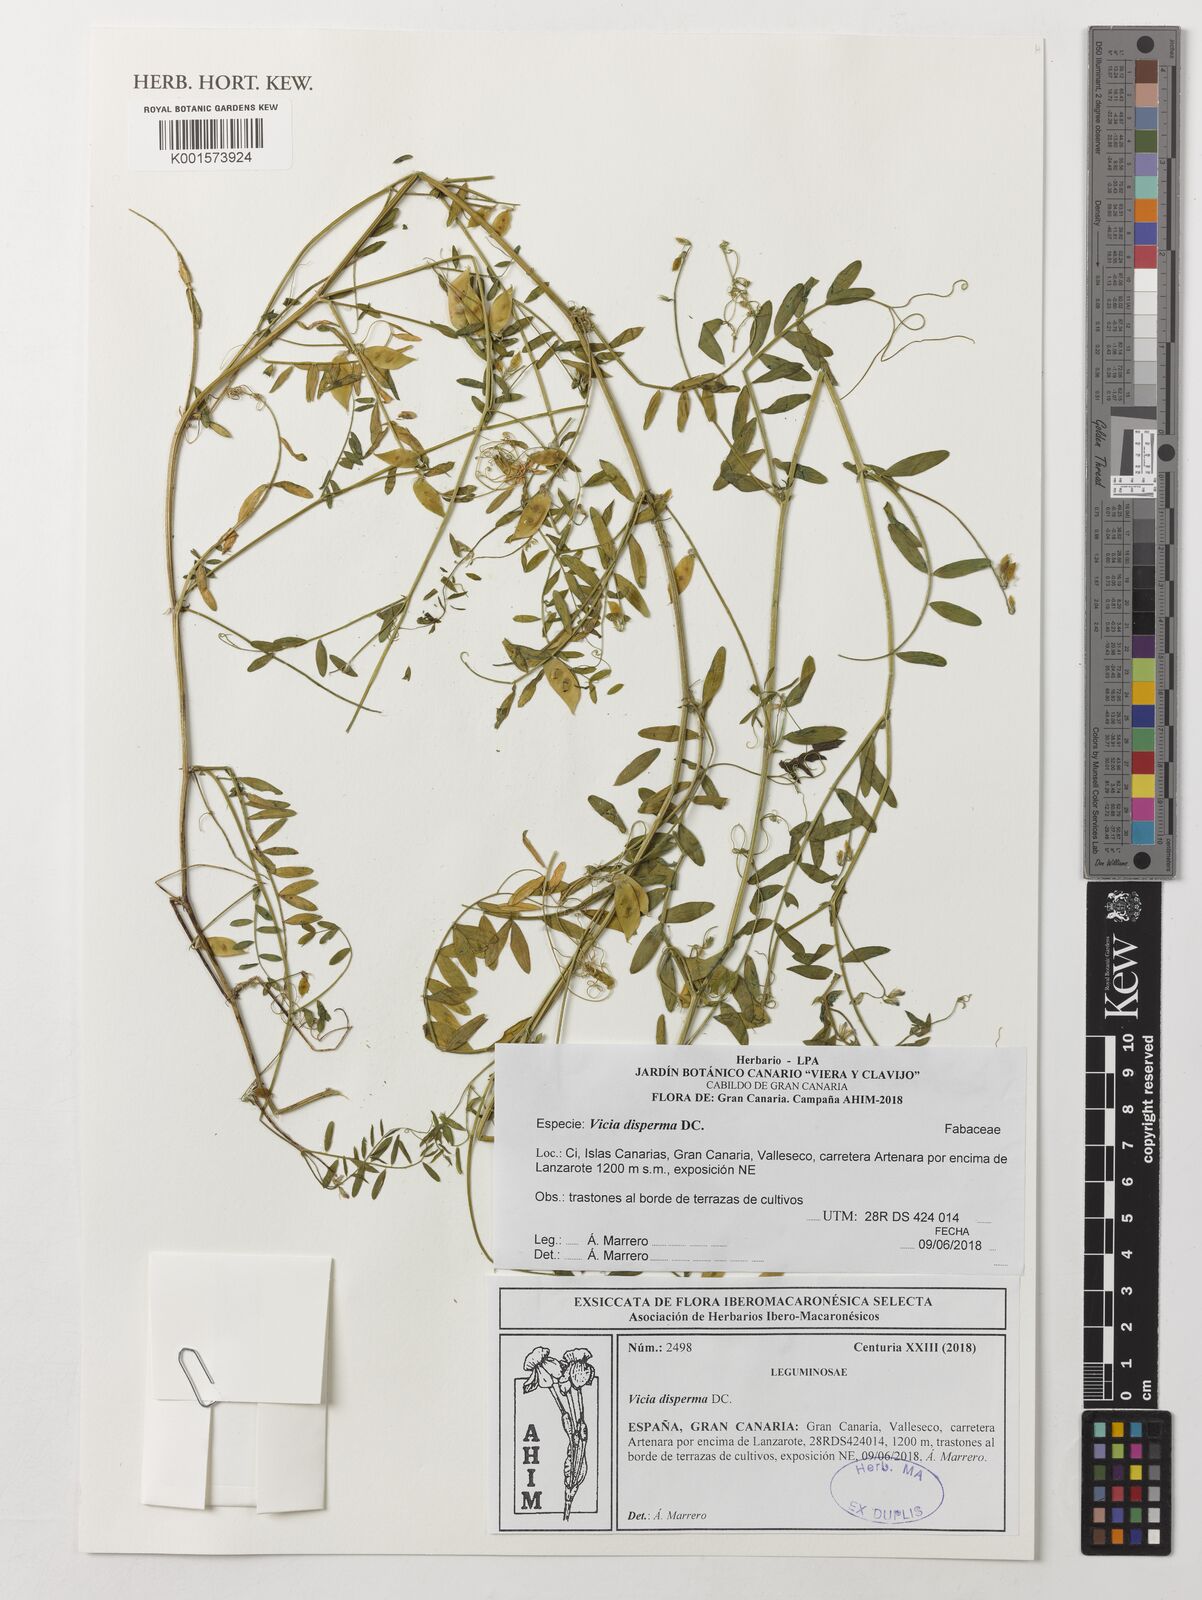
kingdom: Plantae
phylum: Tracheophyta
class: Magnoliopsida
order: Fabales
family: Fabaceae
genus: Vicia
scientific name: Vicia disperma
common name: European vetch
